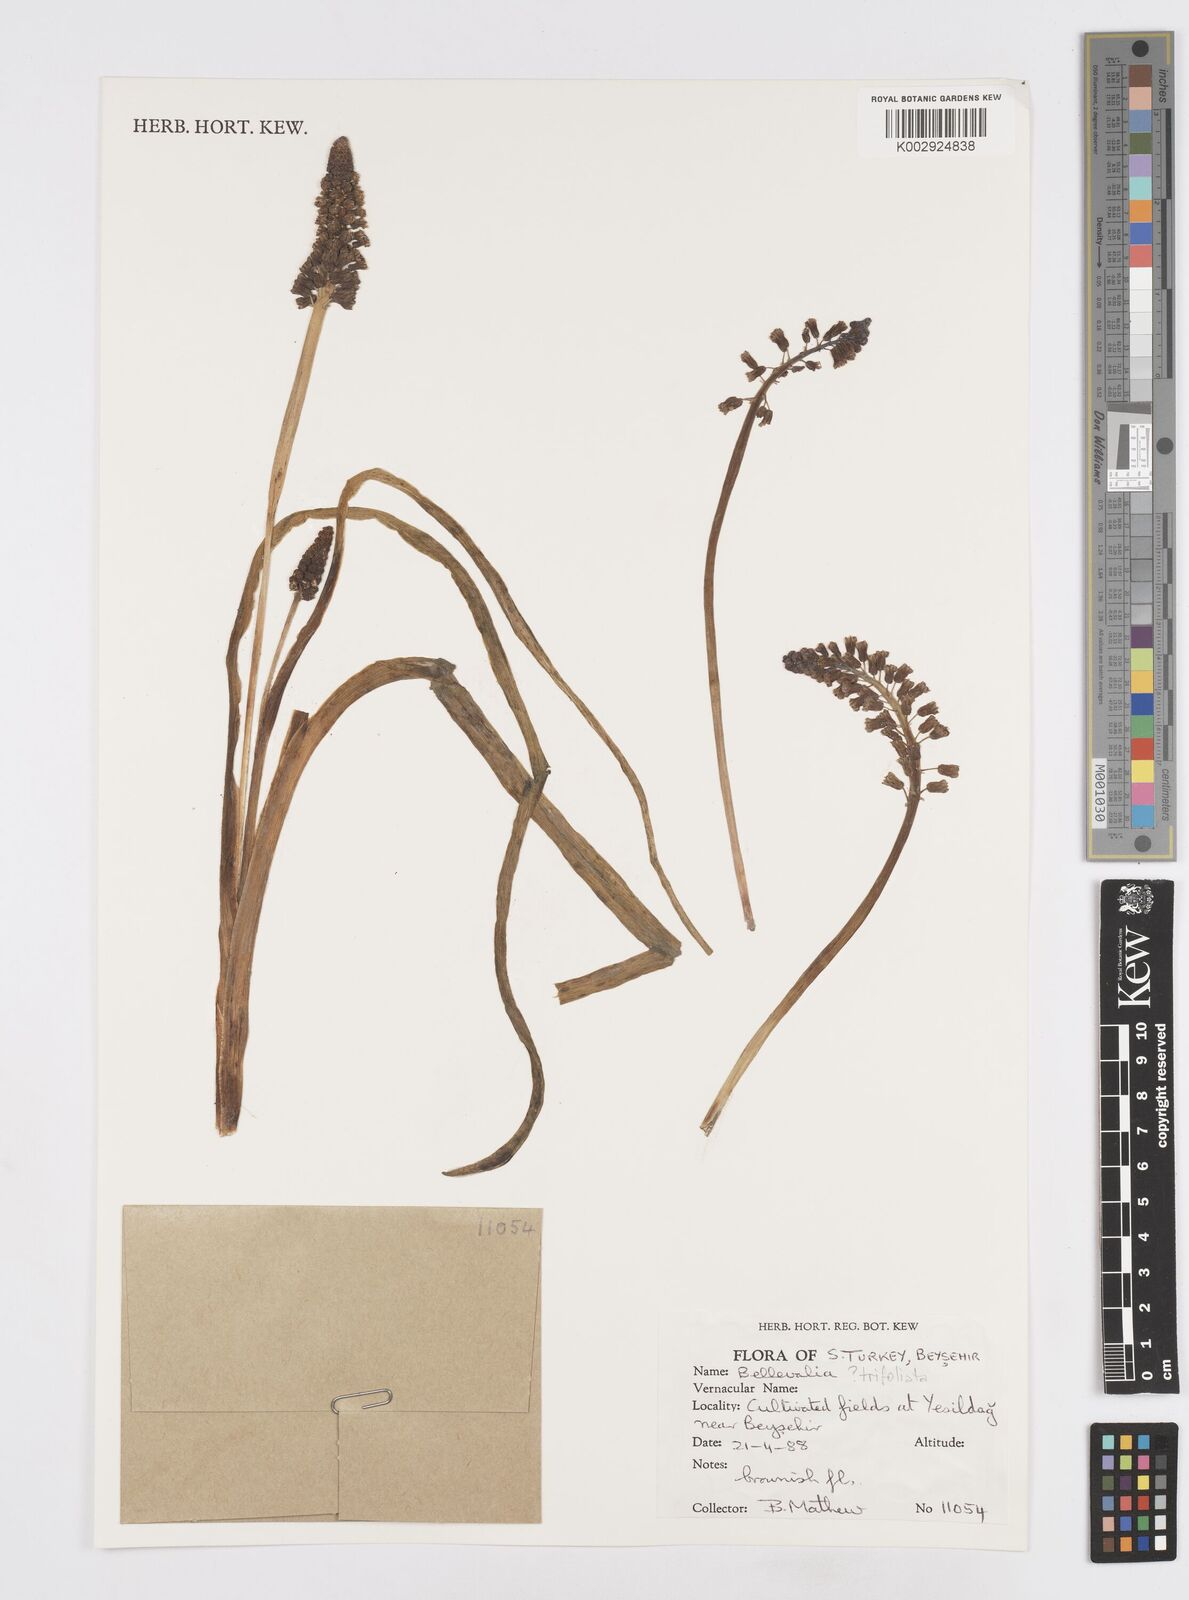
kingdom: Plantae
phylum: Tracheophyta
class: Liliopsida
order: Asparagales
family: Asparagaceae
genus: Bellevalia
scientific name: Bellevalia
